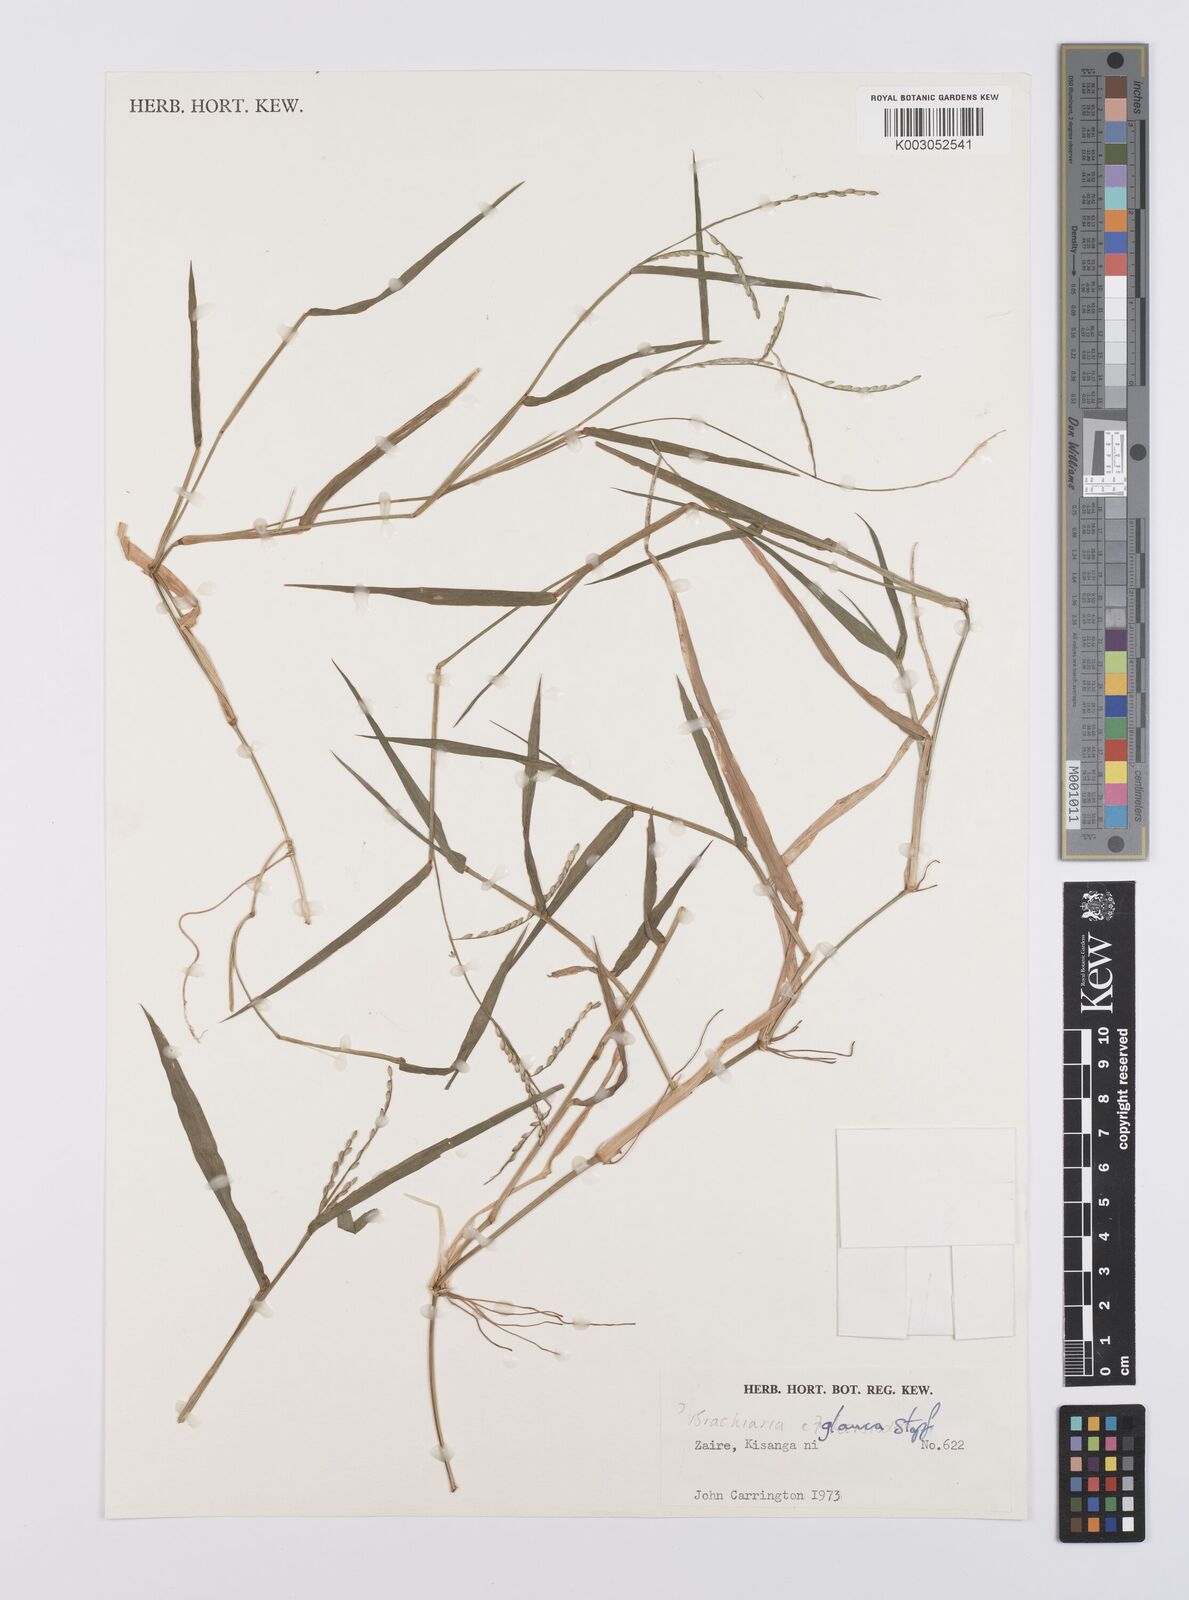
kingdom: Plantae
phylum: Tracheophyta
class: Liliopsida
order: Poales
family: Poaceae
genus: Urochloa
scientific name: Urochloa leersioides
